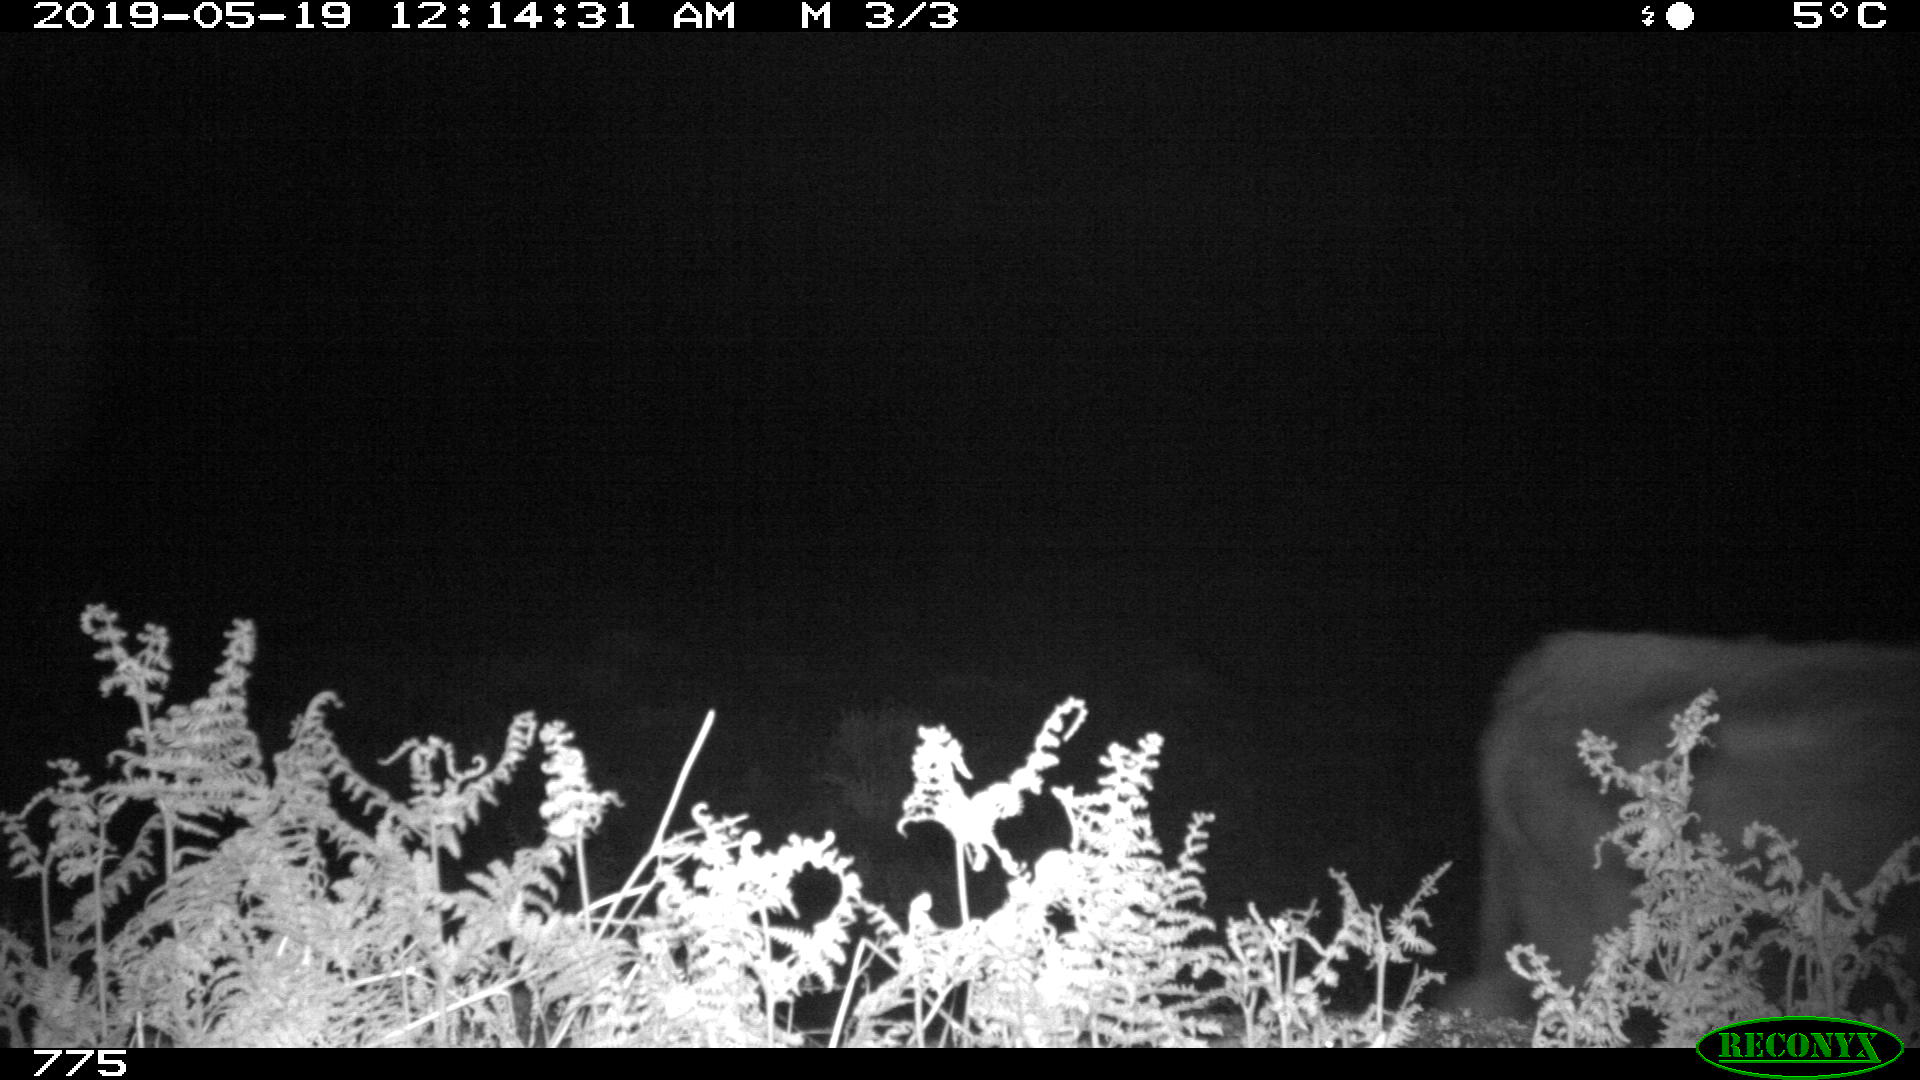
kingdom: Animalia
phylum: Chordata
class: Mammalia
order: Artiodactyla
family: Bovidae
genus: Bos
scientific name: Bos taurus
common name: Domesticated cattle
